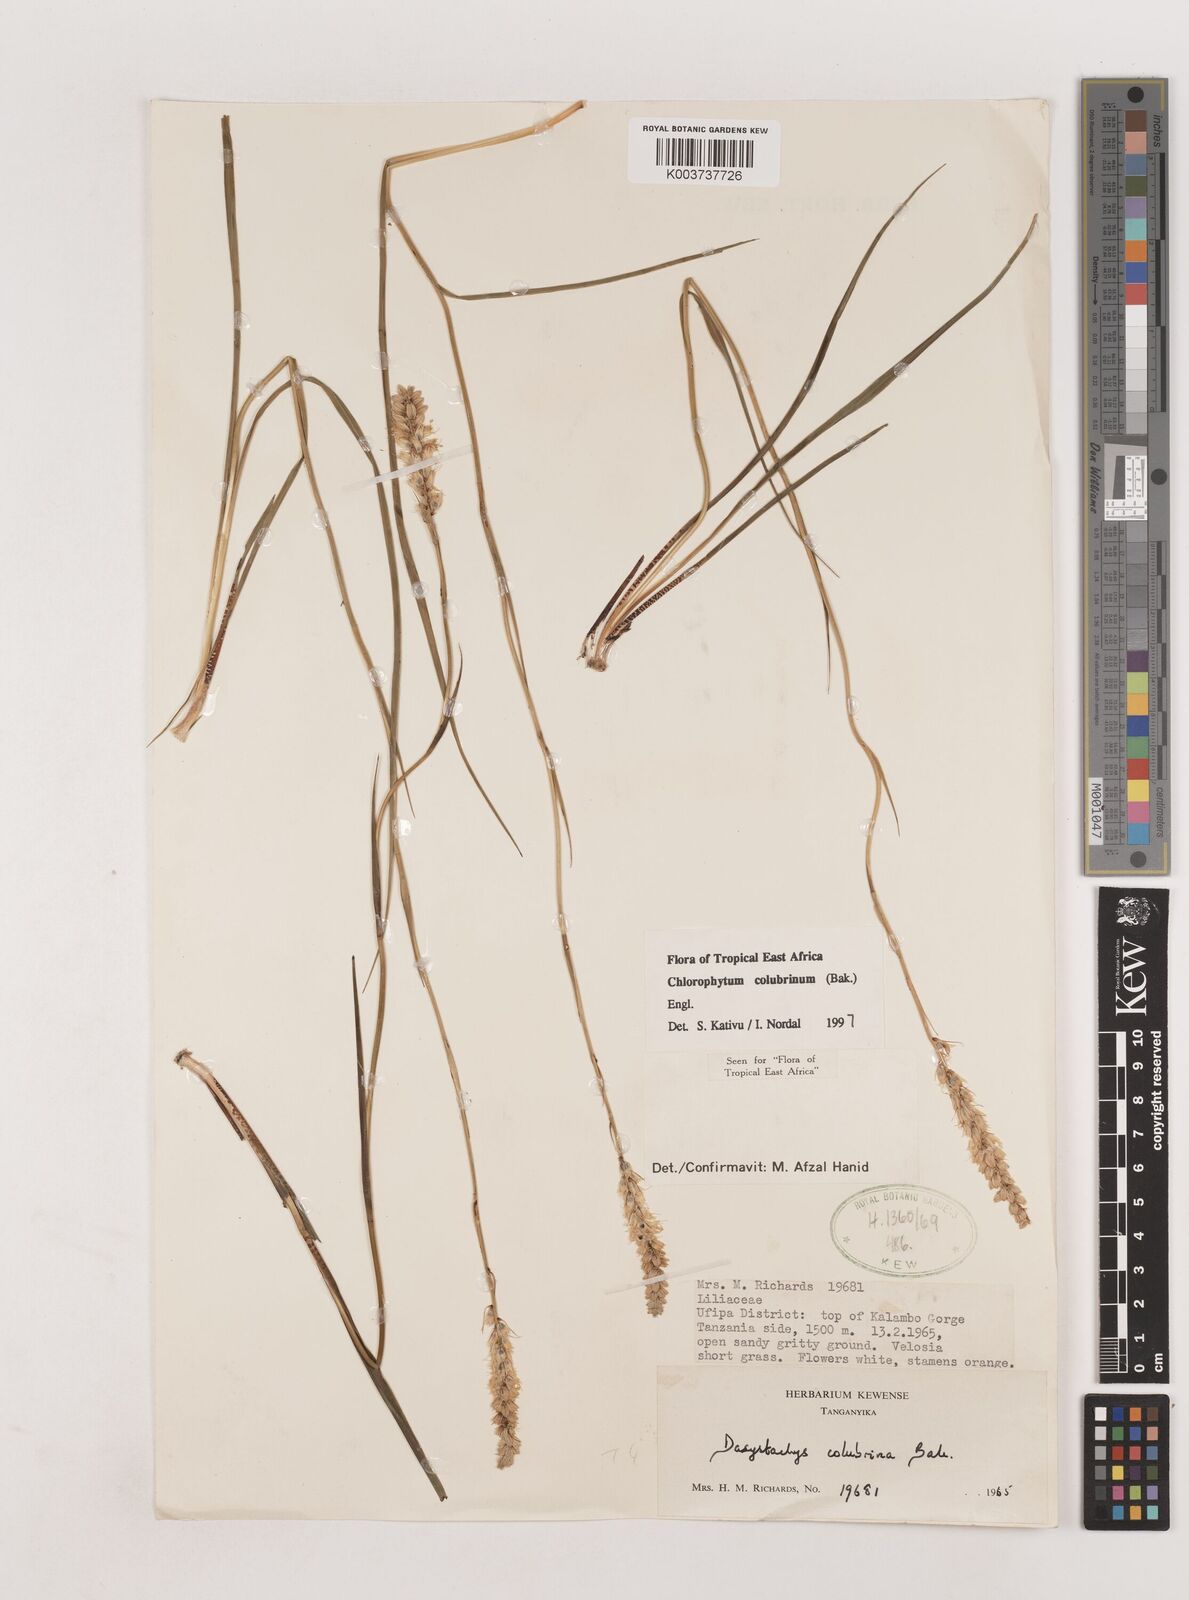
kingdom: Plantae
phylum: Tracheophyta
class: Liliopsida
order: Asparagales
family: Asparagaceae
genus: Chlorophytum
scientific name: Chlorophytum colubrinum
